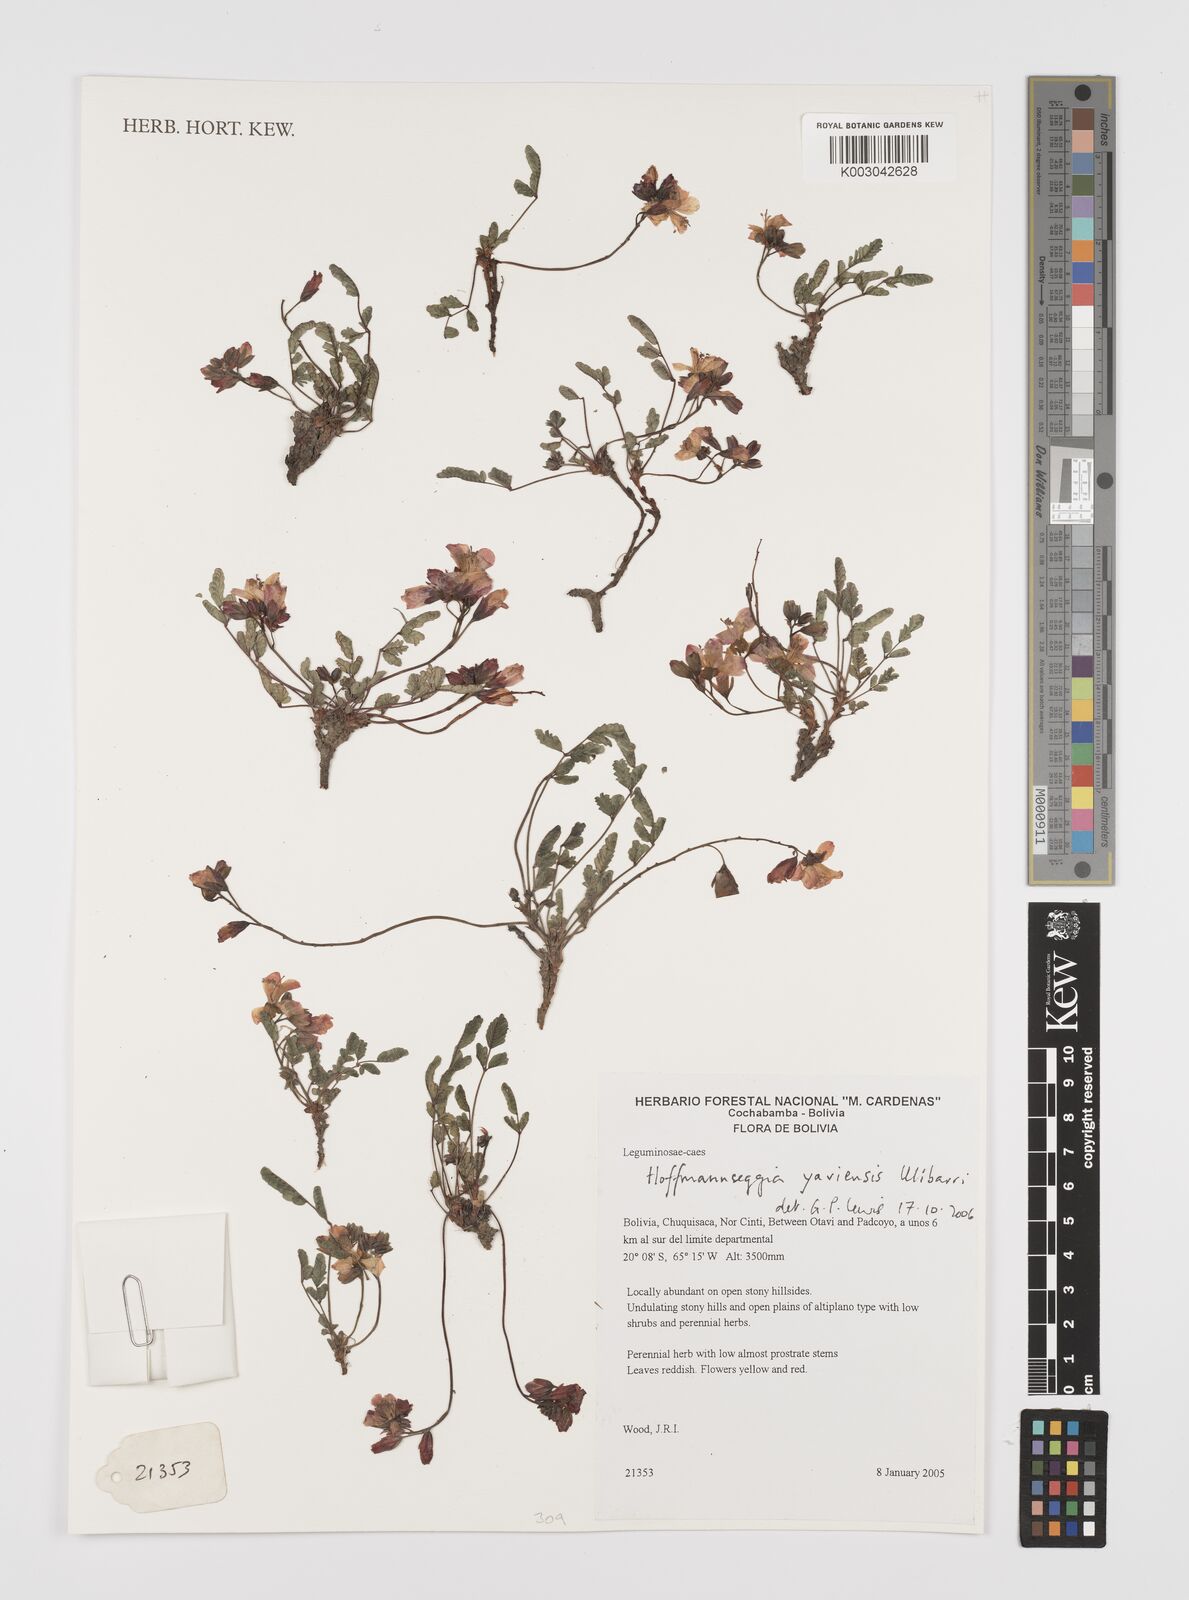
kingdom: Plantae
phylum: Tracheophyta
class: Magnoliopsida
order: Fabales
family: Fabaceae
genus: Hoffmannseggia
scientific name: Hoffmannseggia yaviensis
